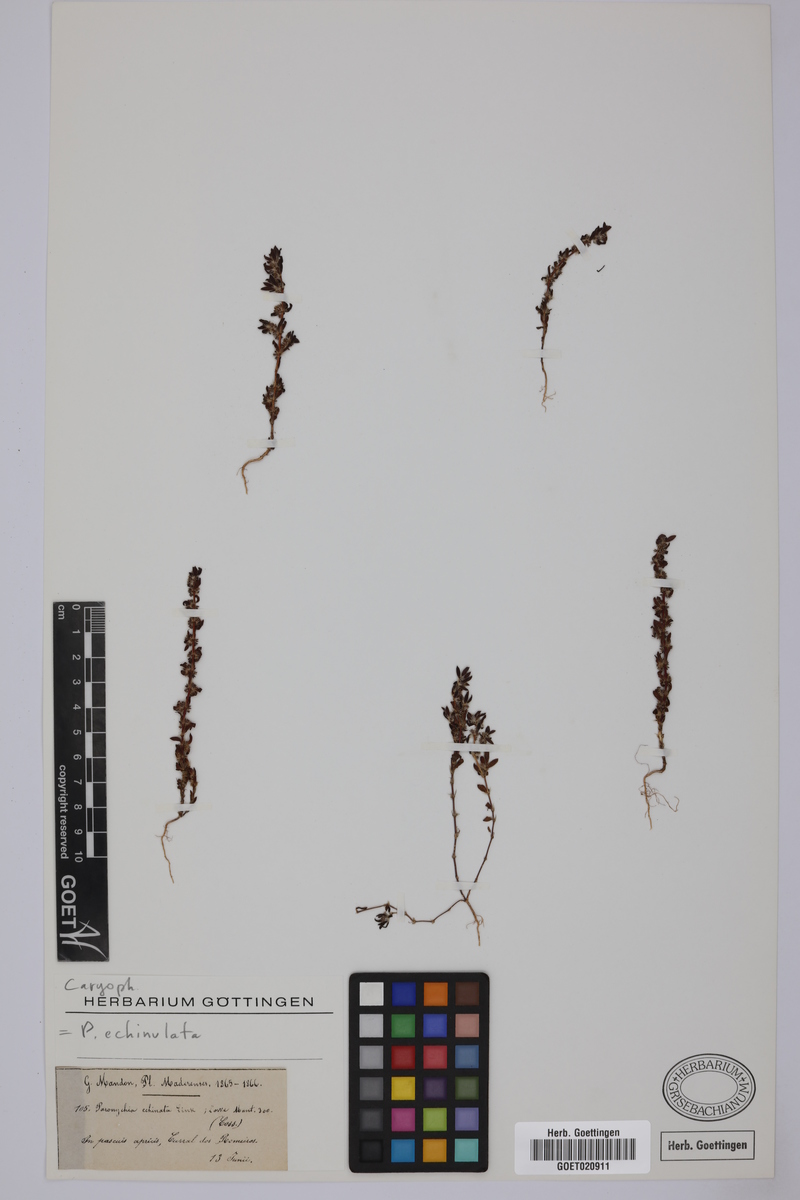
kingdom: Plantae
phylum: Tracheophyta
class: Magnoliopsida
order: Caryophyllales
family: Caryophyllaceae
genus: Paronychia
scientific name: Paronychia echinulata
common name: Eurasian nailwort
